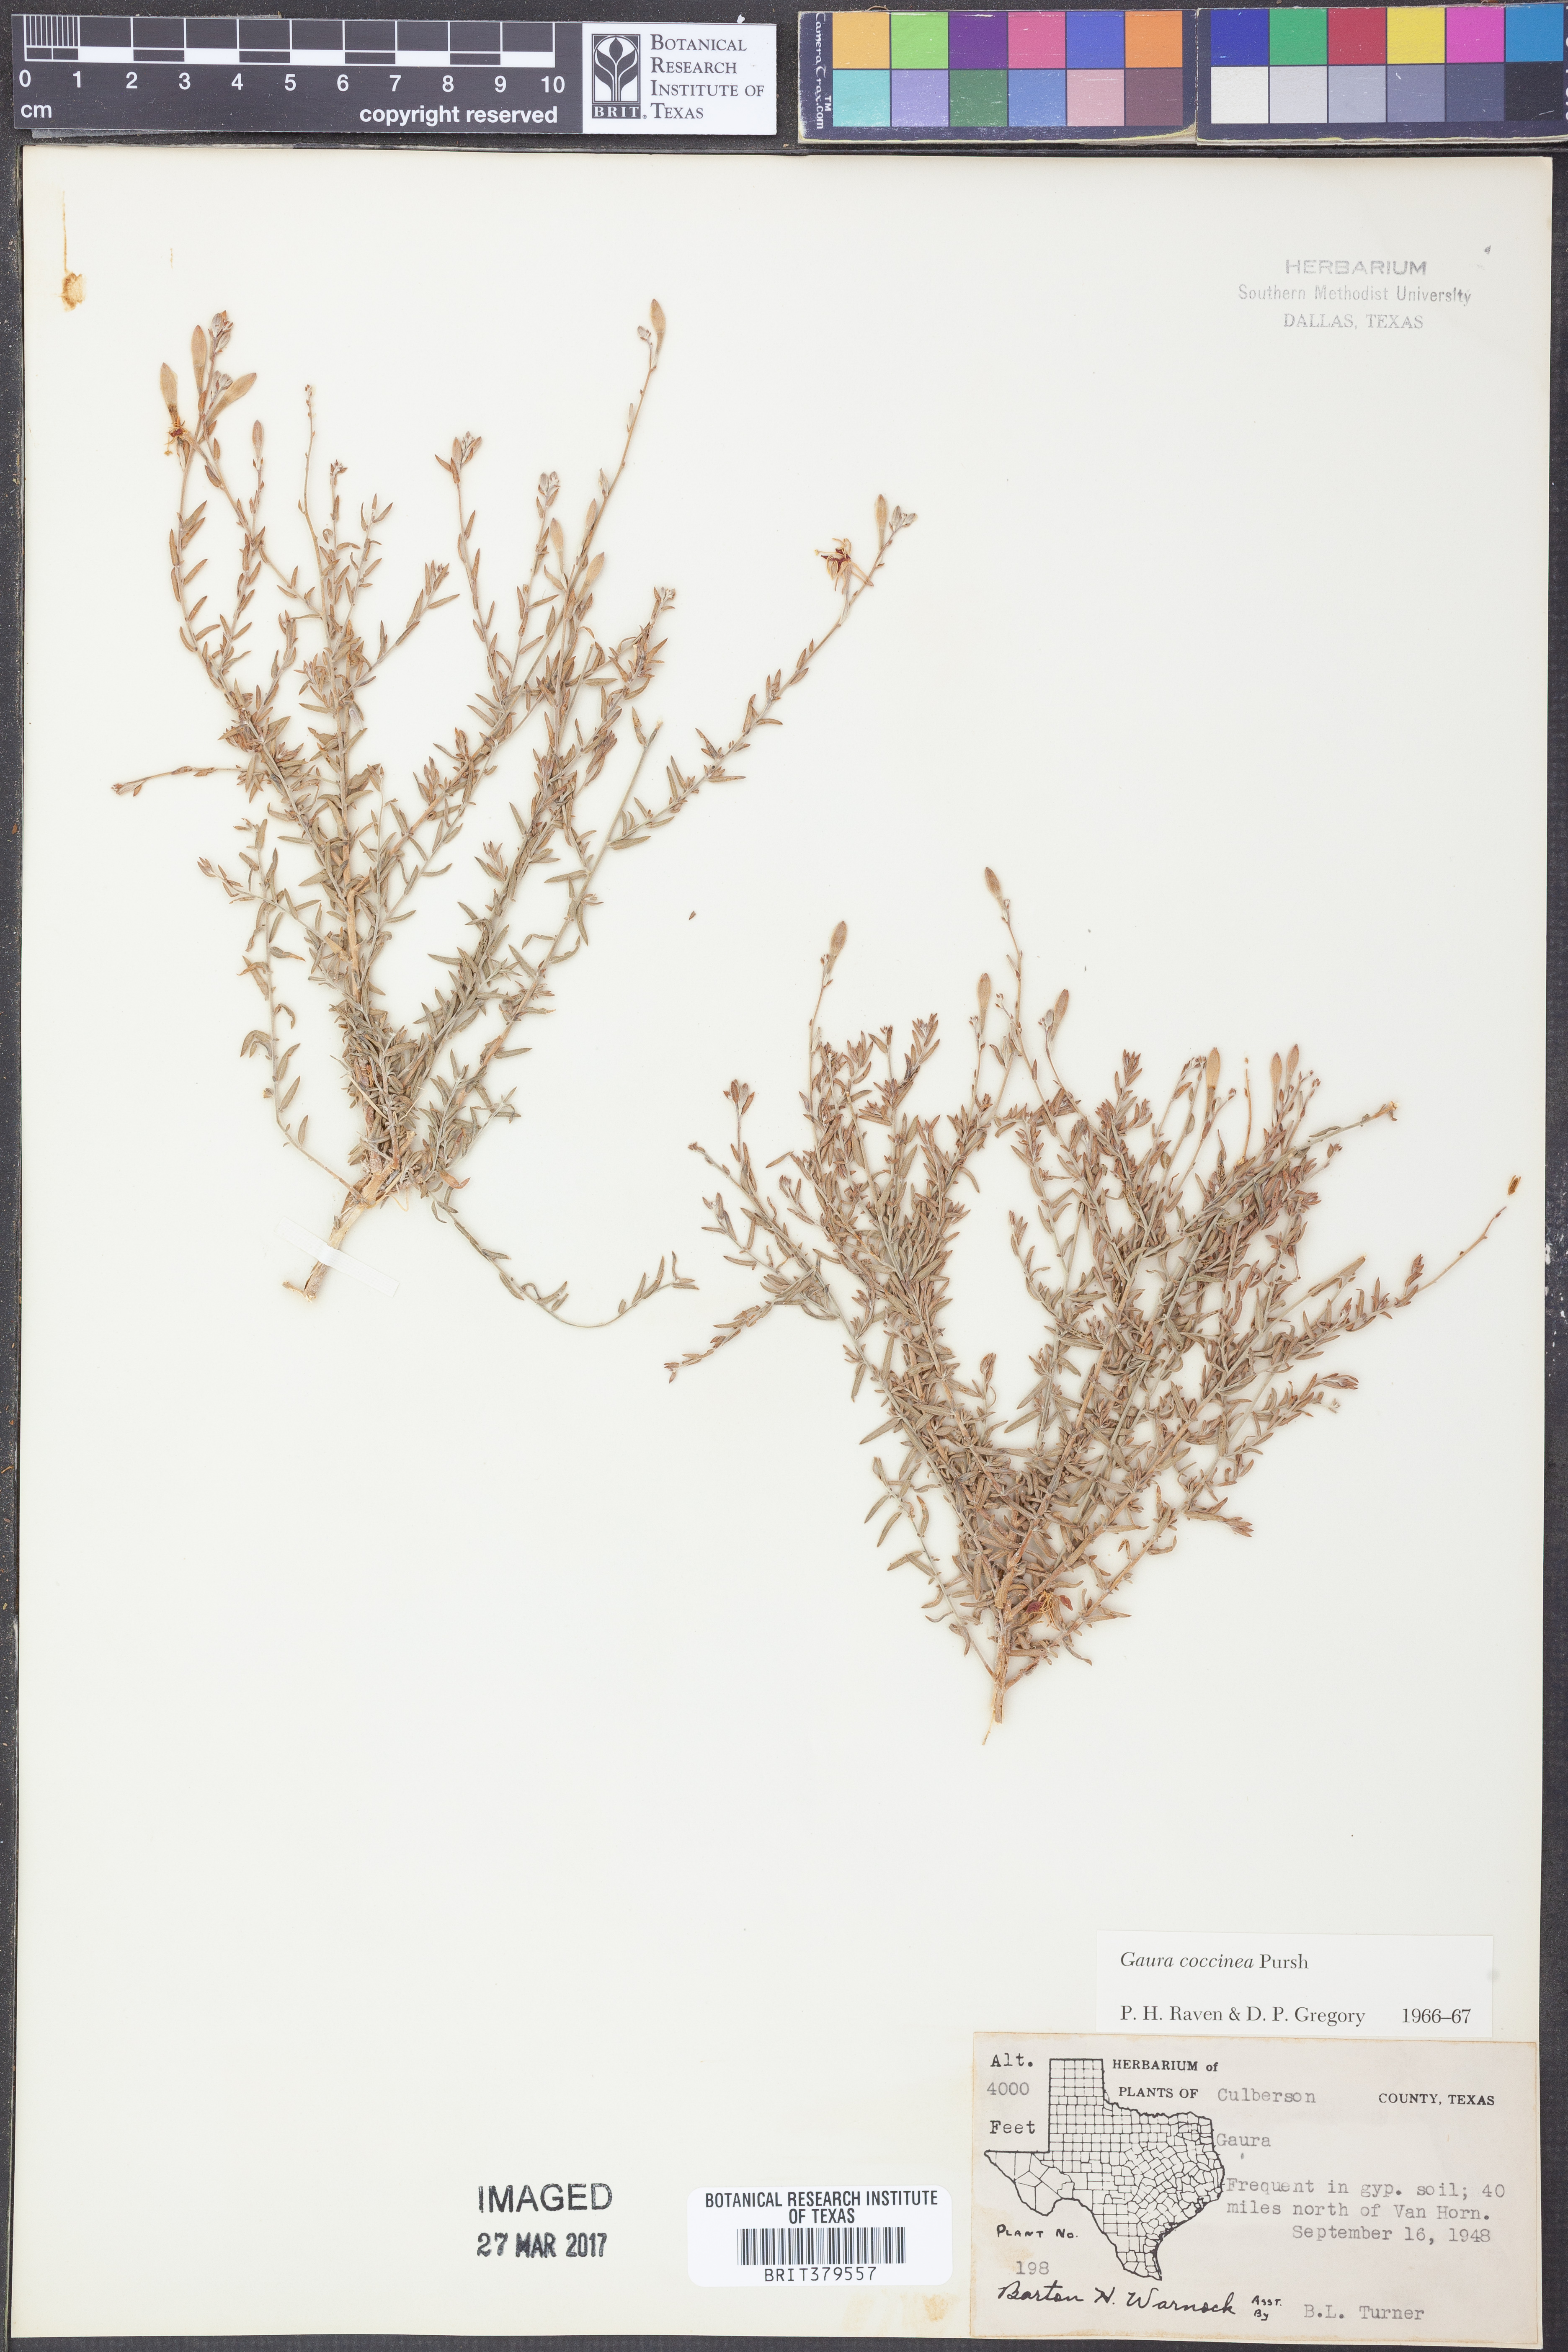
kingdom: Plantae
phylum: Tracheophyta
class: Magnoliopsida
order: Myrtales
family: Onagraceae
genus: Oenothera
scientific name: Oenothera suffrutescens
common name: Scarlet beeblossom
